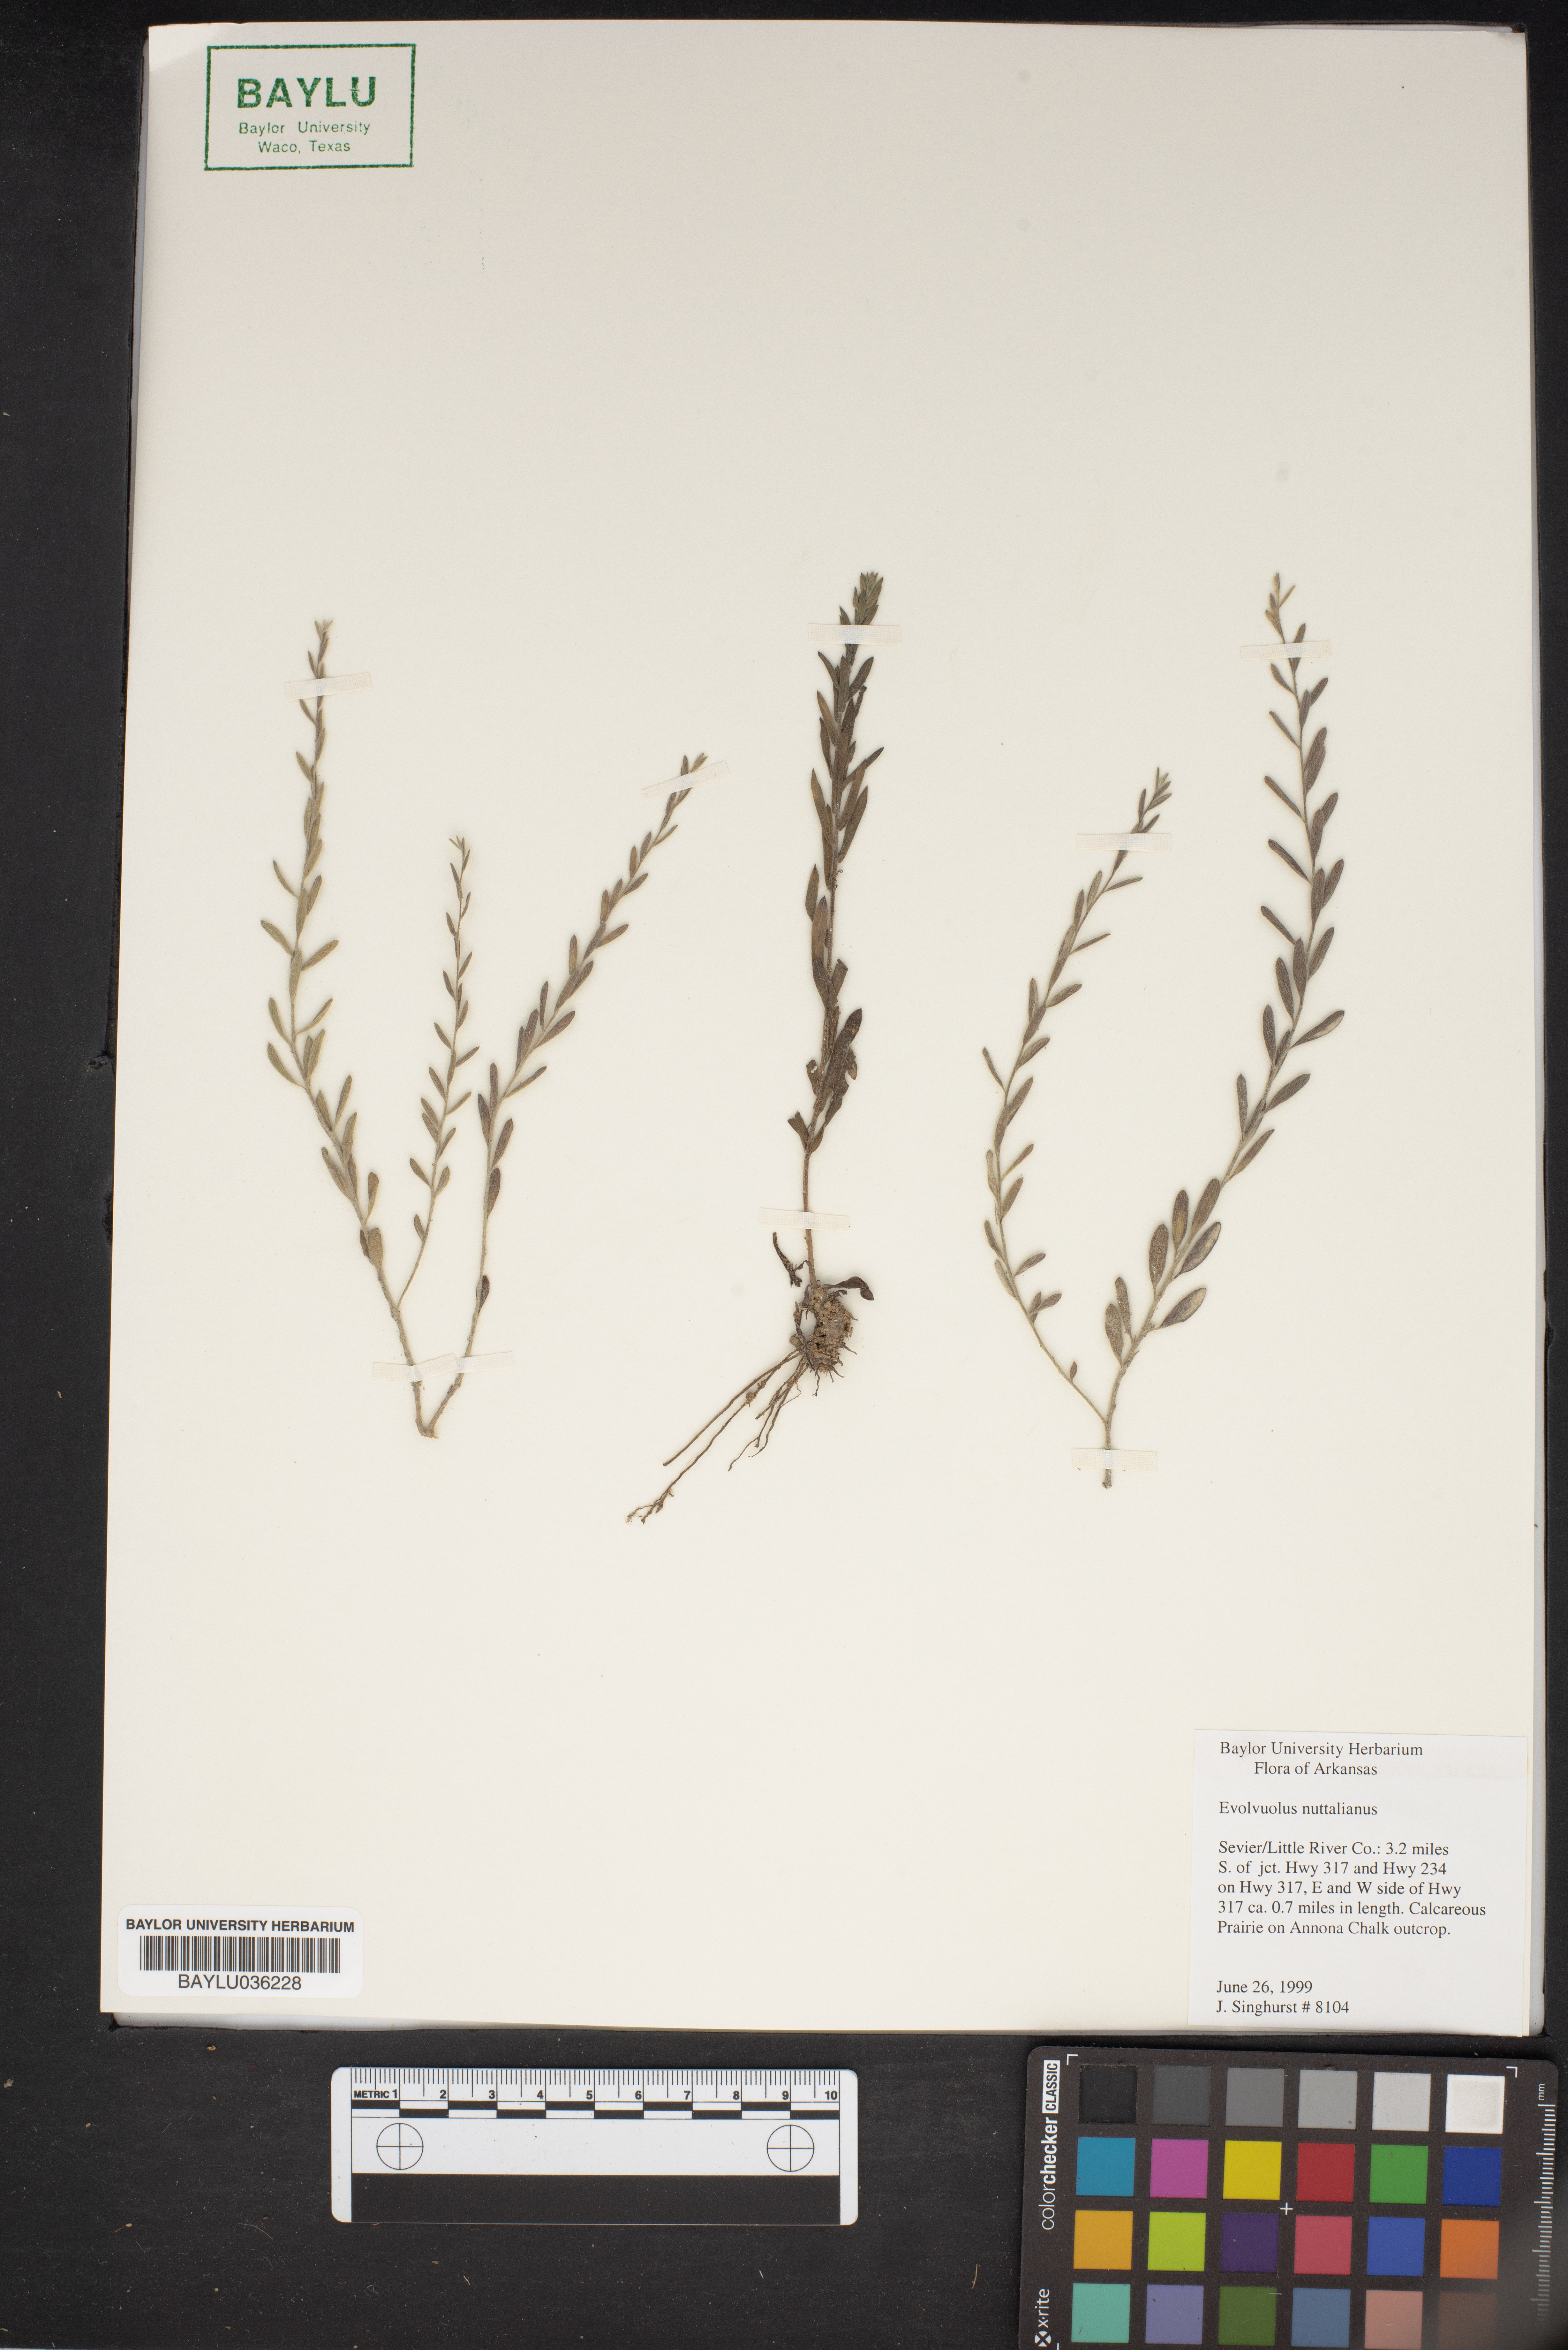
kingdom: Plantae
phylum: Tracheophyta
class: Magnoliopsida
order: Solanales
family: Convolvulaceae
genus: Evolvulus
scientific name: Evolvulus nuttallianus
